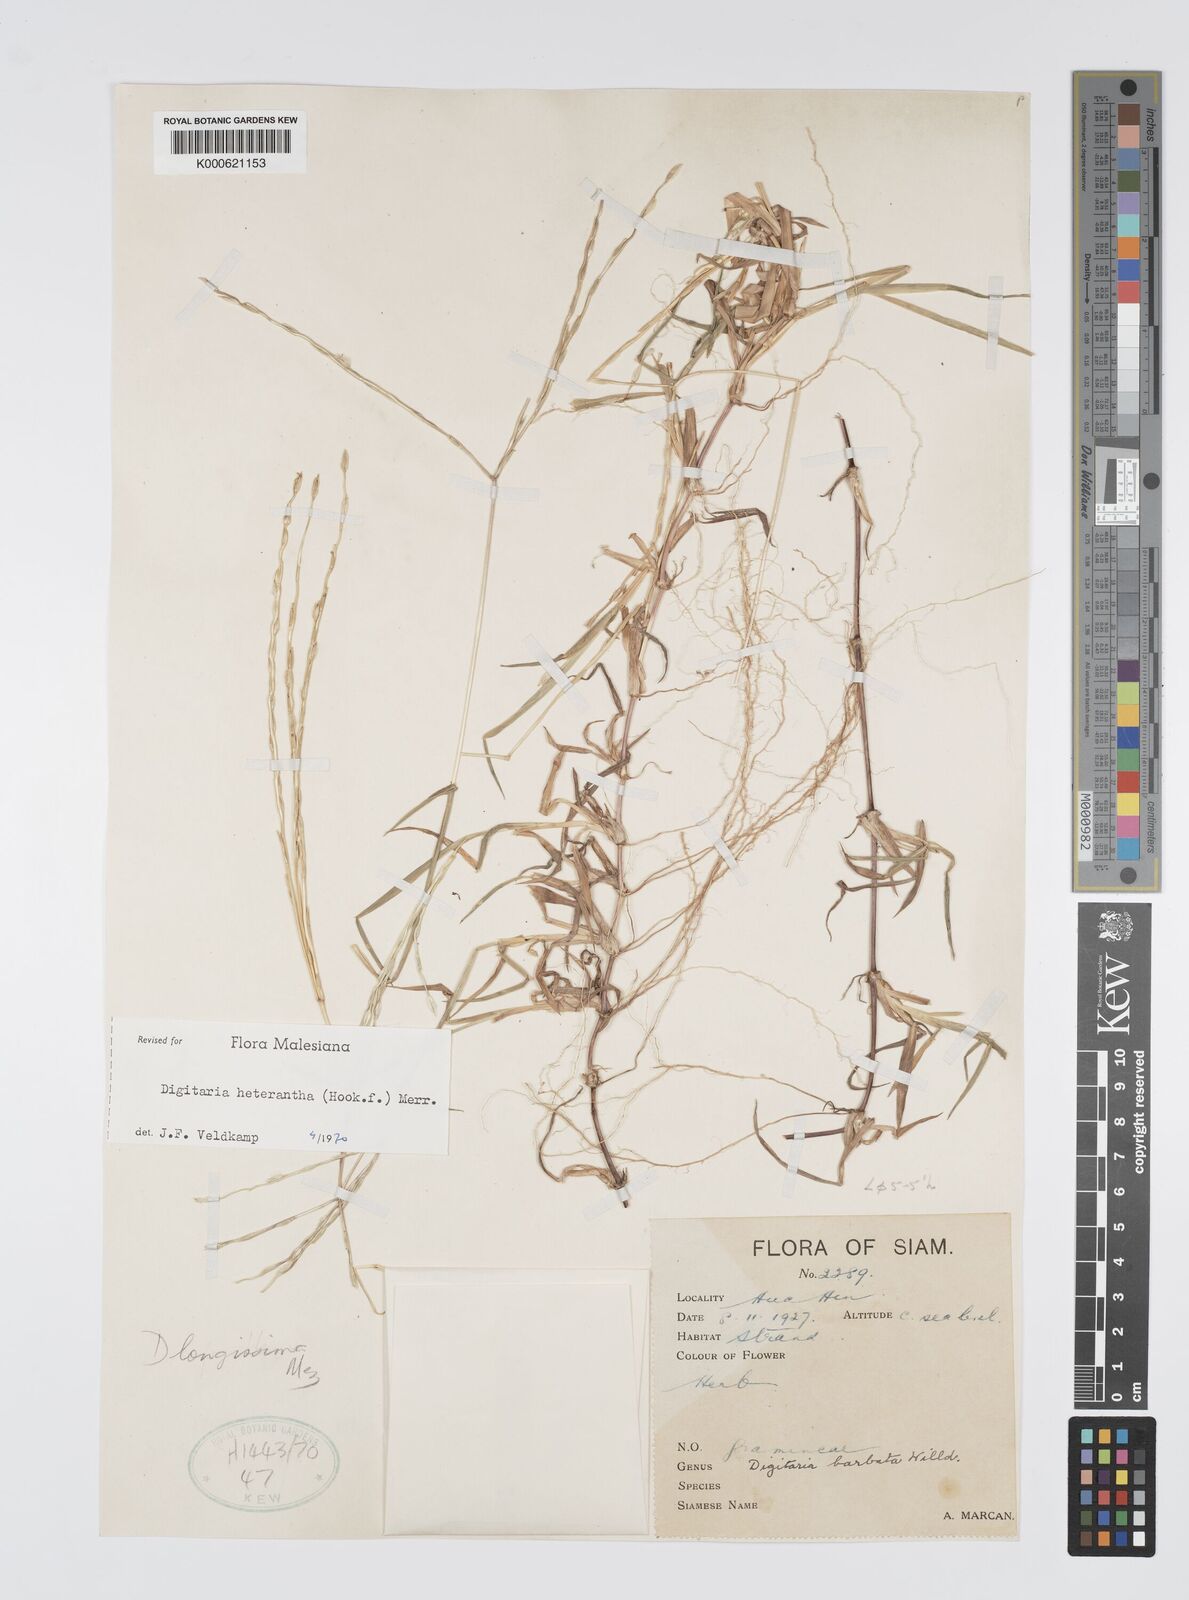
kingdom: Plantae
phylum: Tracheophyta
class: Liliopsida
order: Poales
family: Poaceae
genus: Digitaria
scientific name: Digitaria heterantha
